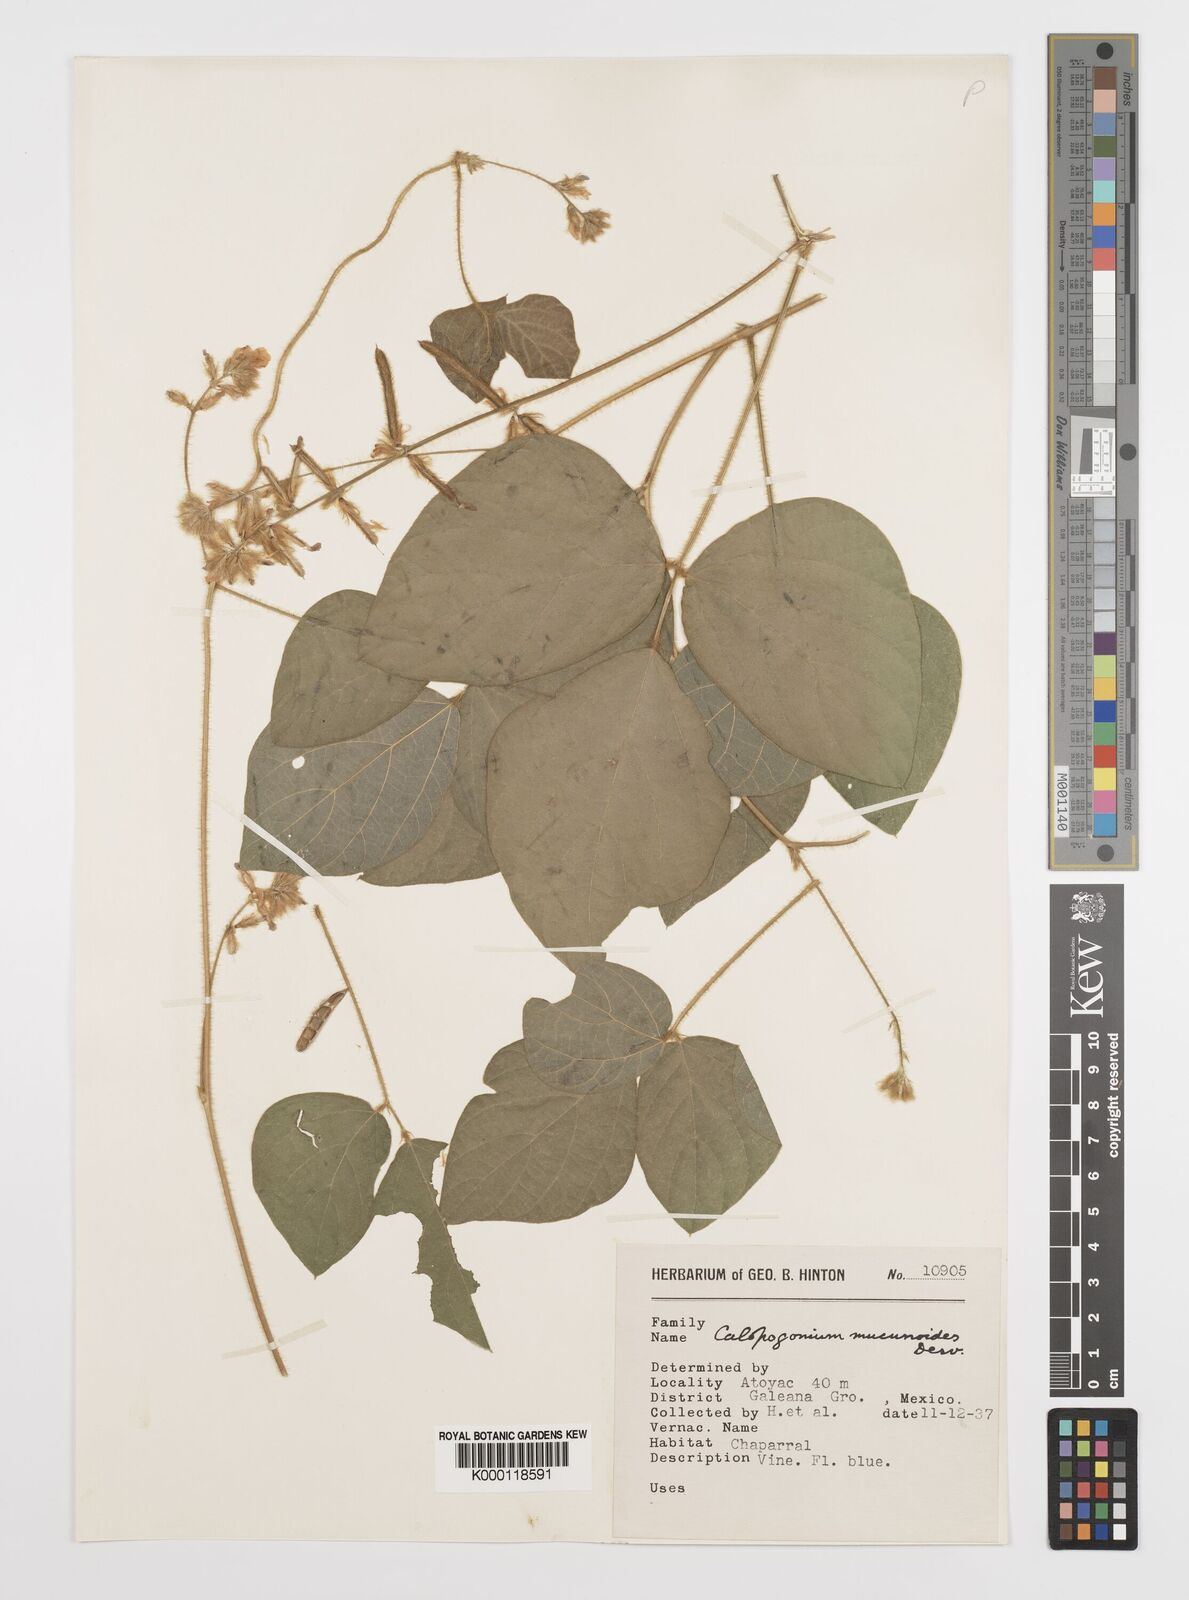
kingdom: Plantae
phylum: Tracheophyta
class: Magnoliopsida
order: Fabales
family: Fabaceae
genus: Calopogonium
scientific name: Calopogonium mucunoides
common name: Calopo
